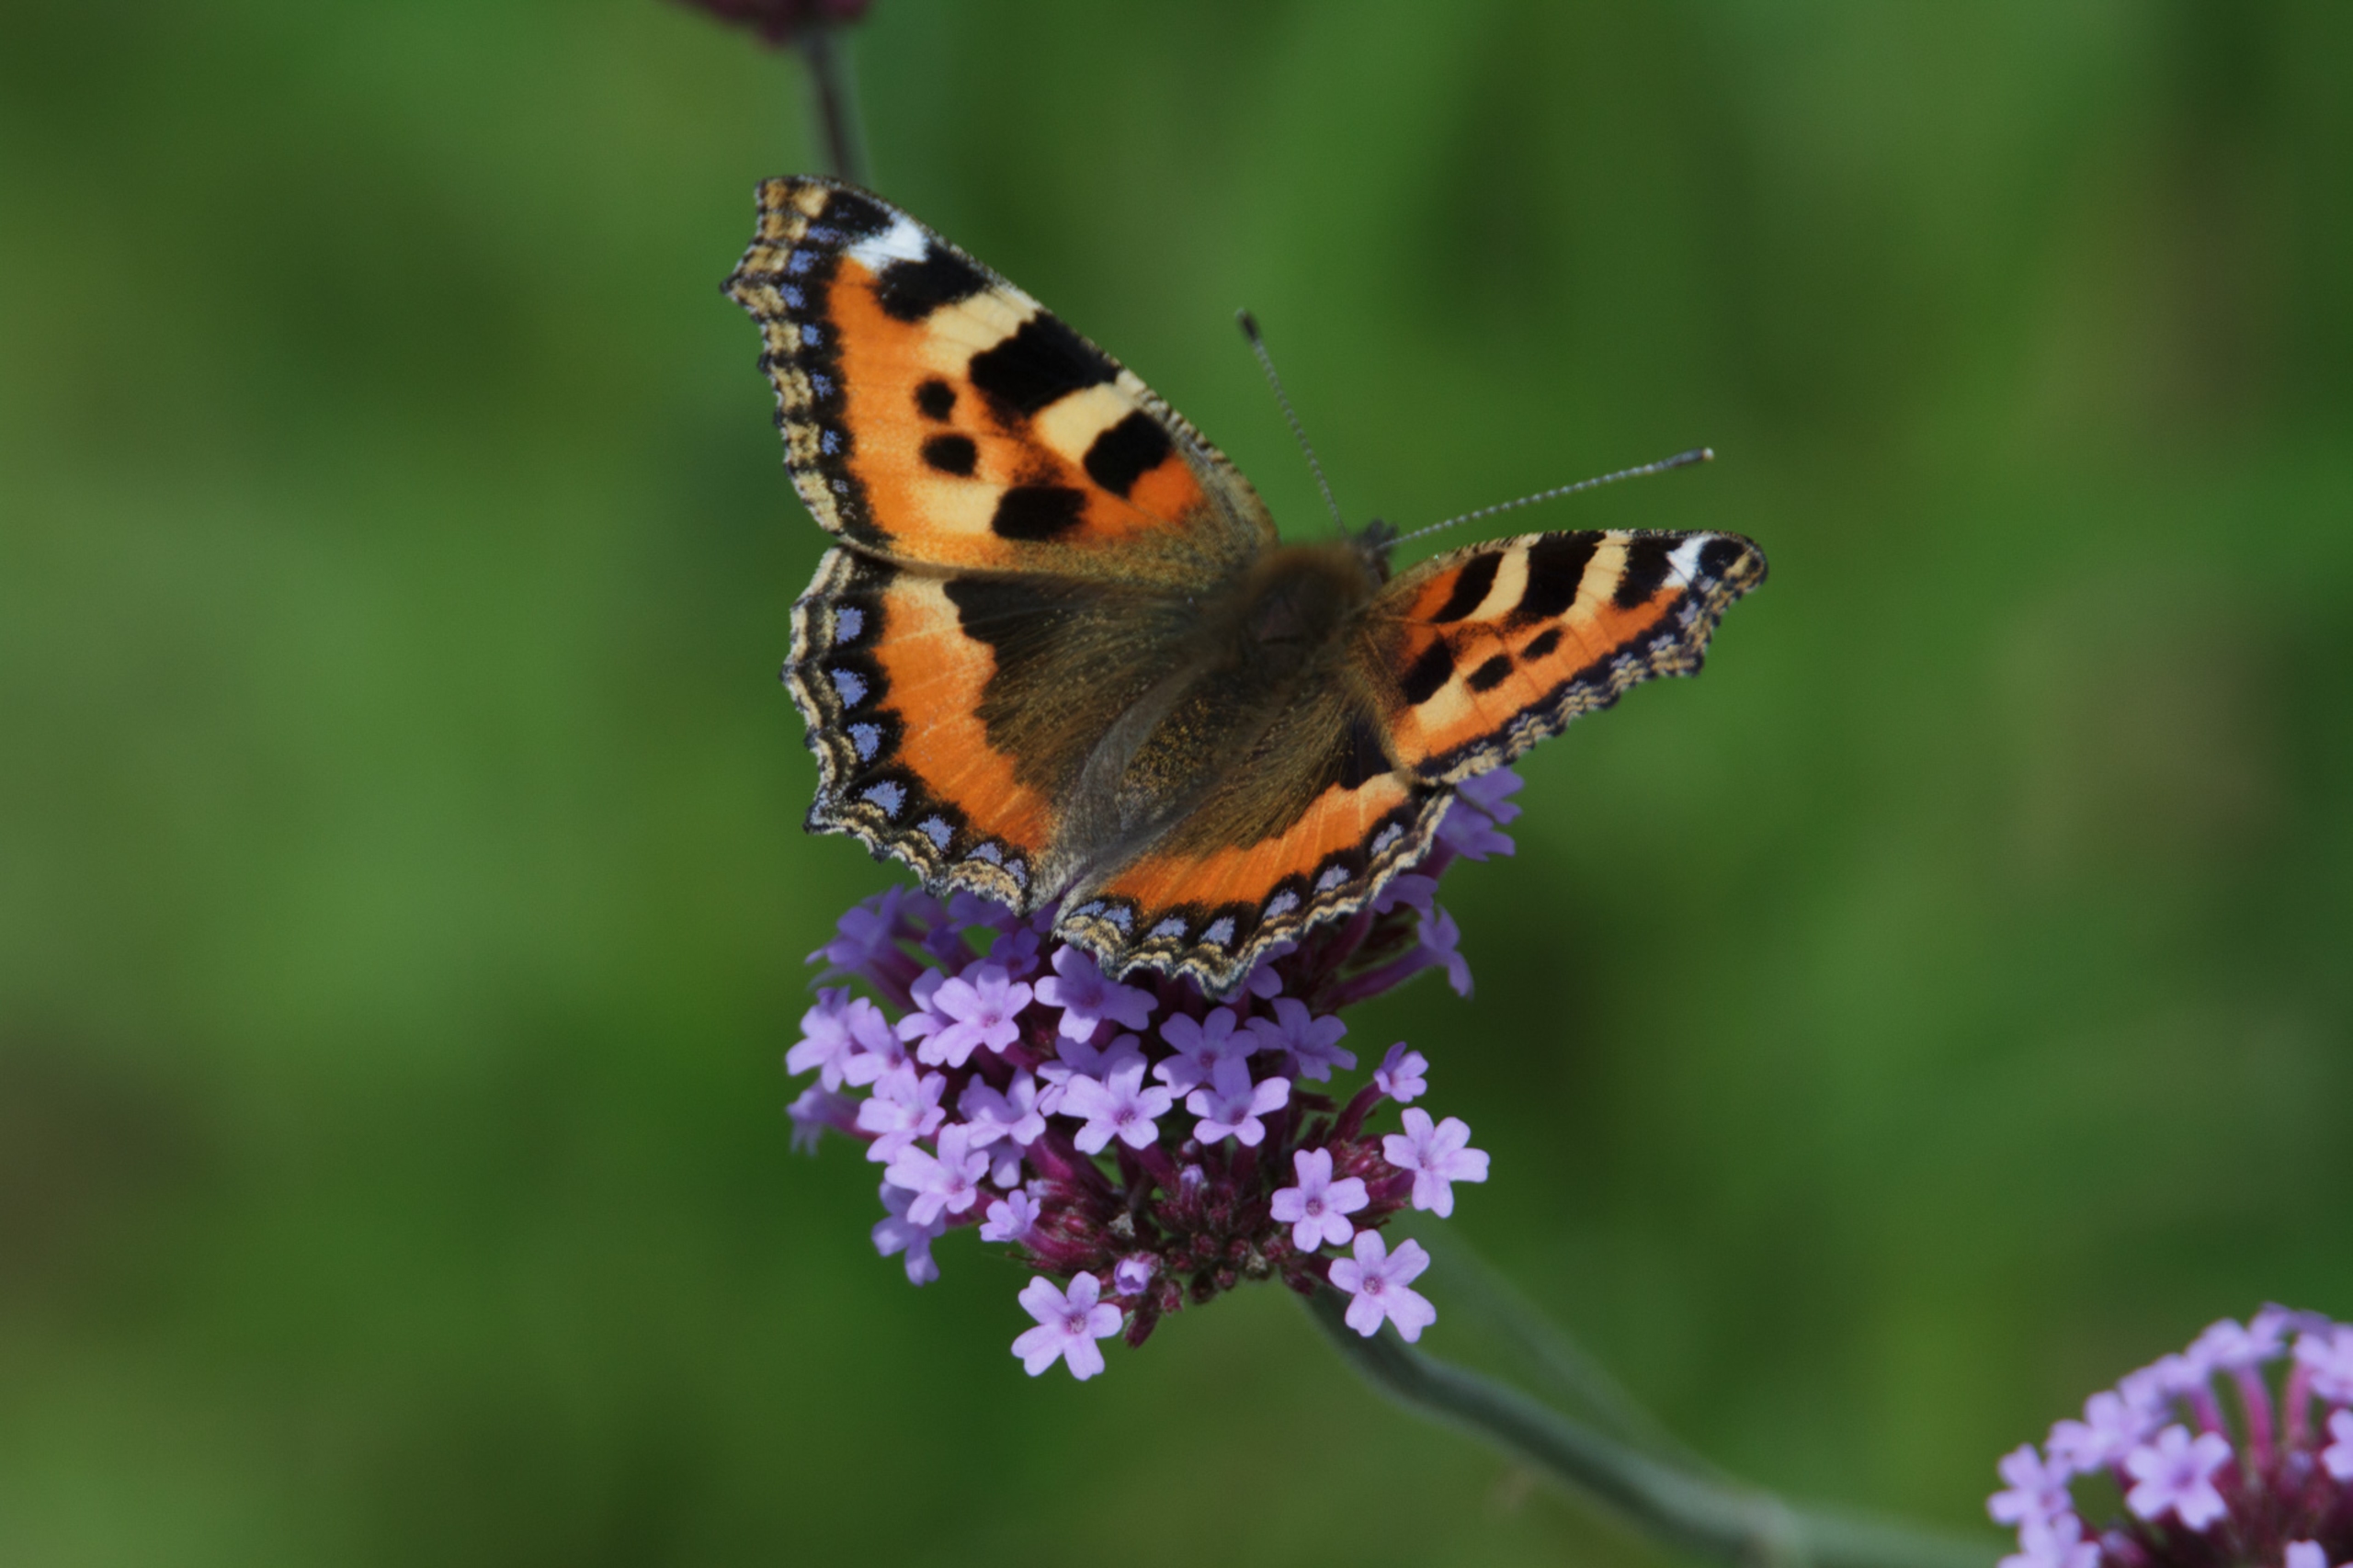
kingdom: Animalia
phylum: Arthropoda
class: Insecta
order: Lepidoptera
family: Nymphalidae
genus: Aglais
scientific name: Aglais urticae
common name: Nældens takvinge
